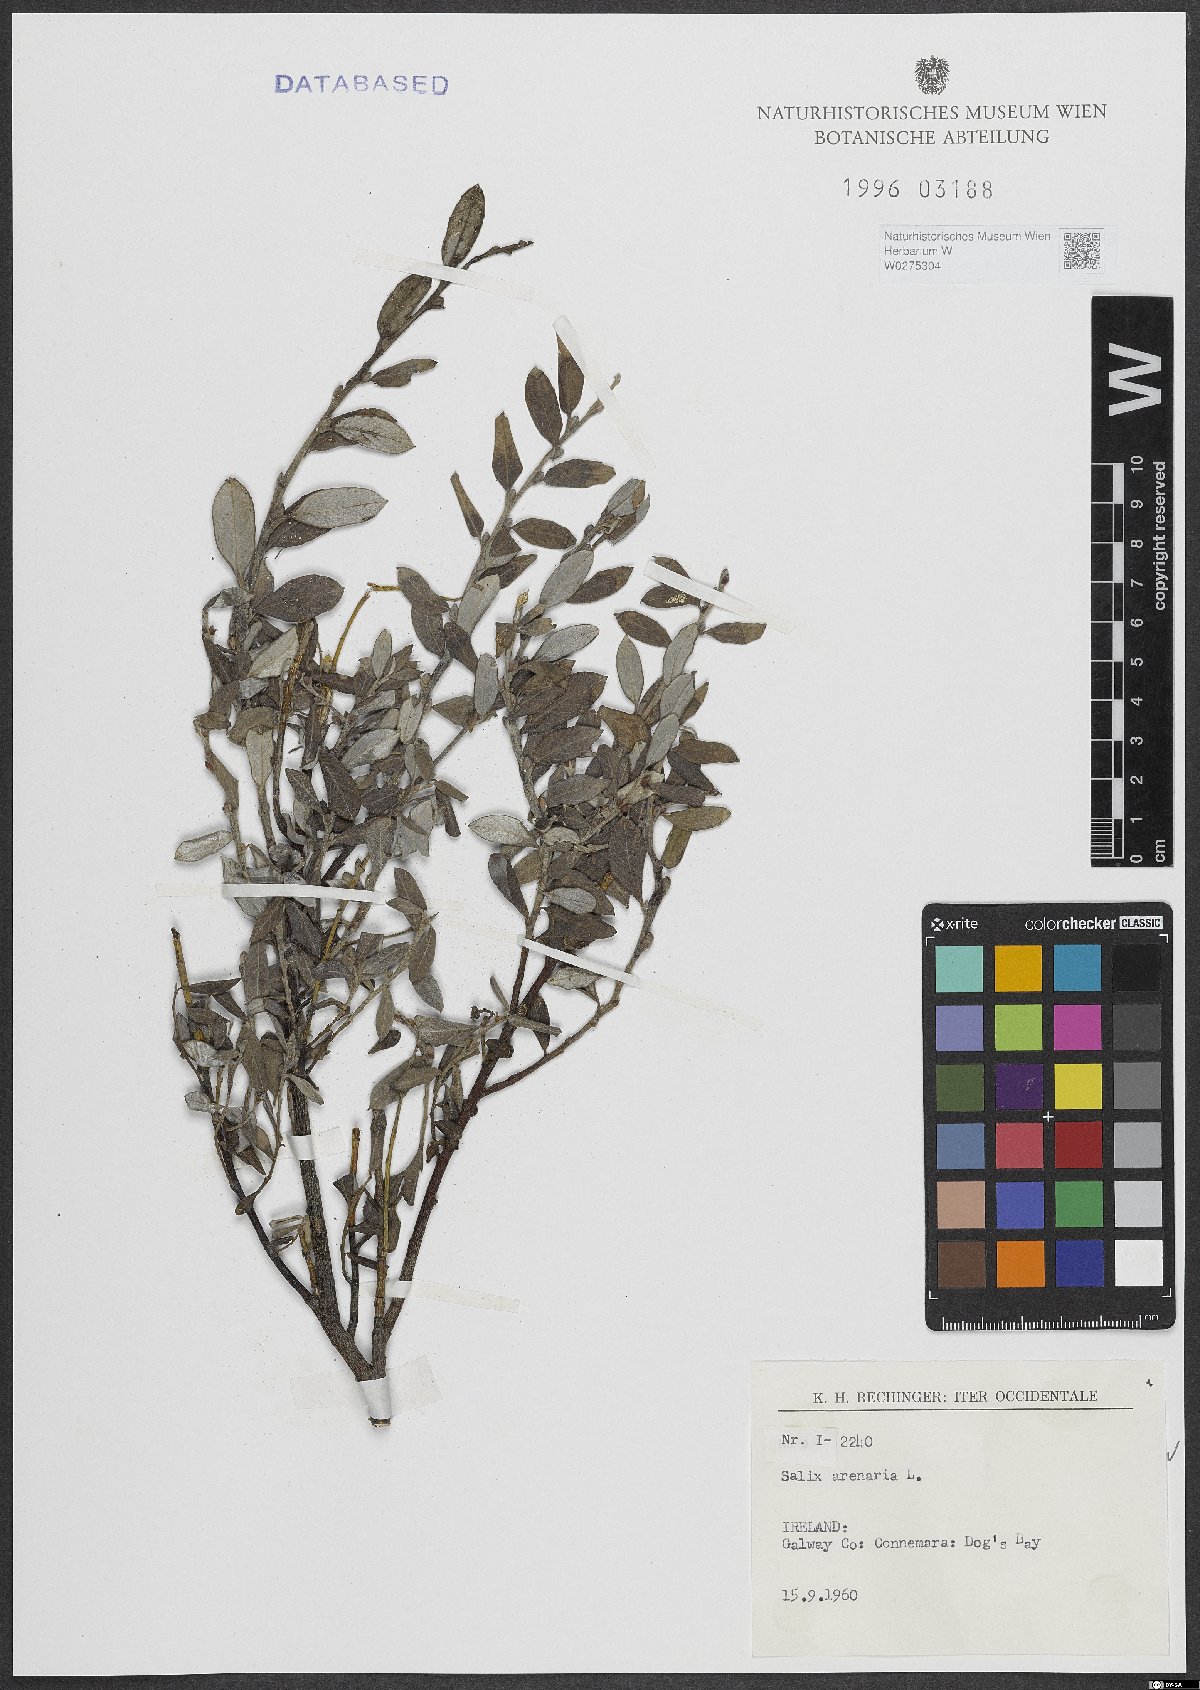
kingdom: Plantae
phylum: Tracheophyta
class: Magnoliopsida
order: Malpighiales
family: Salicaceae
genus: Salix
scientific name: Salix repens
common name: Creeping willow
